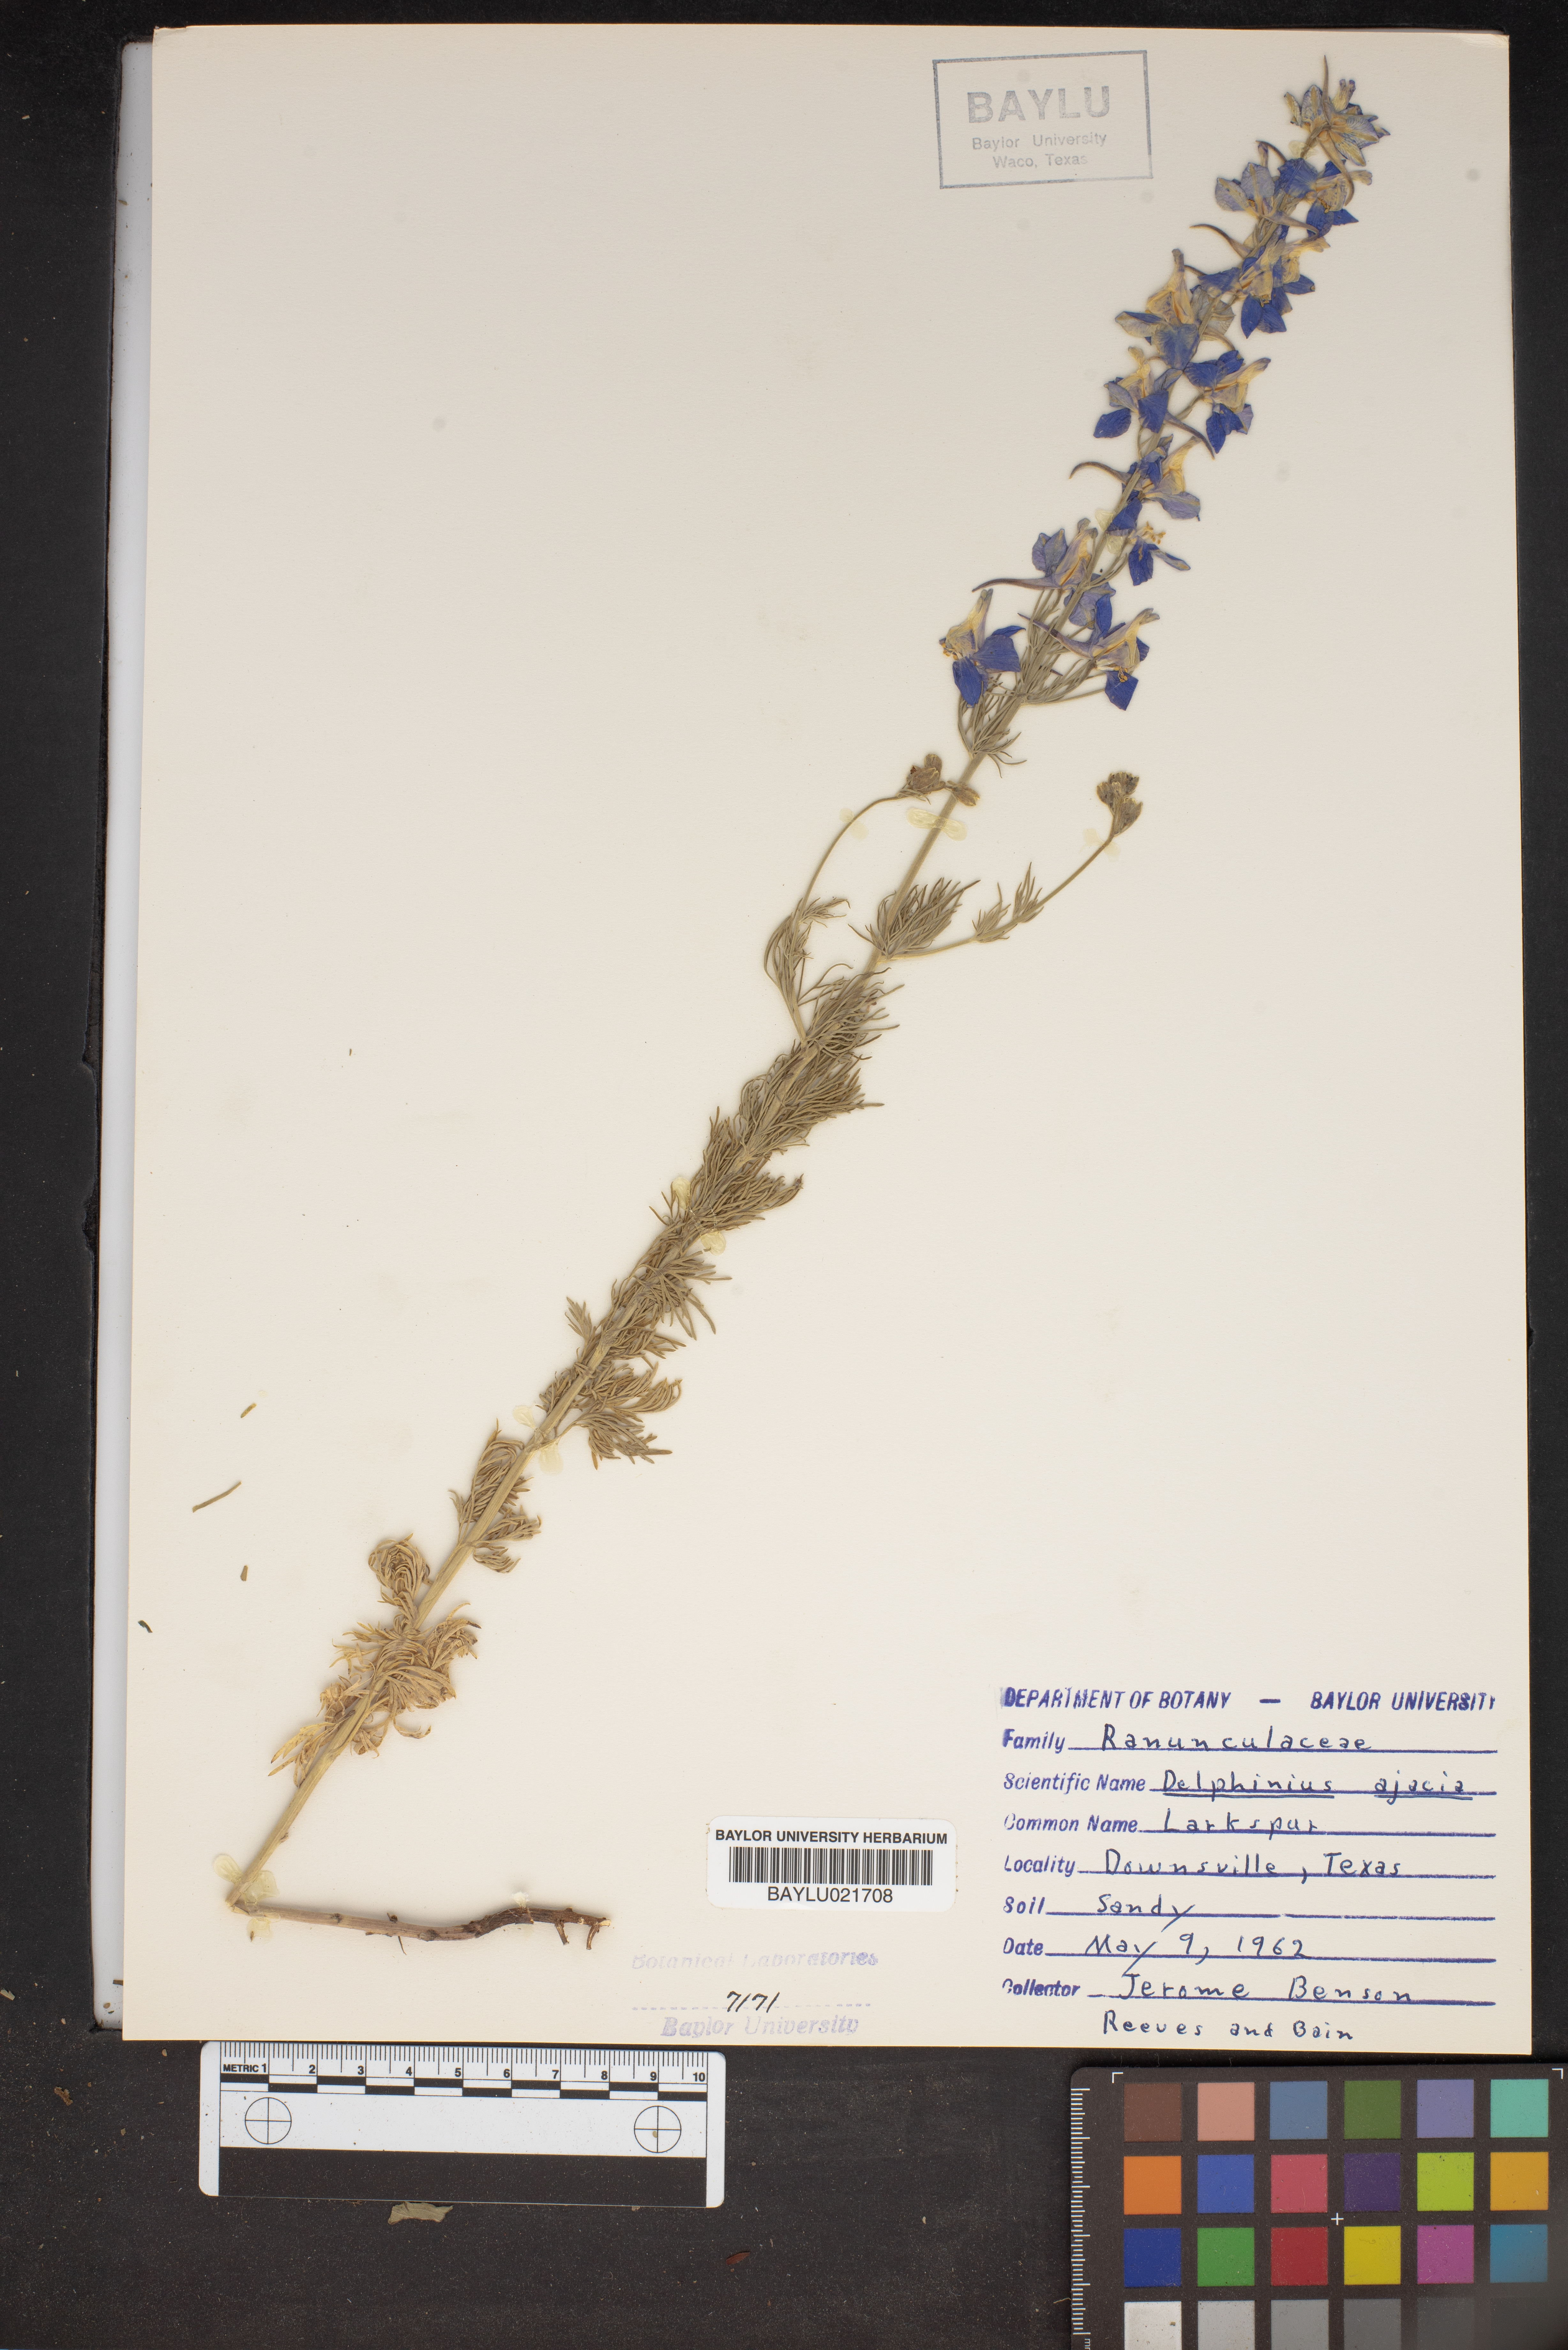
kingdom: Plantae
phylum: Tracheophyta
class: Magnoliopsida
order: Ranunculales
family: Ranunculaceae
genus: Delphinium
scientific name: Delphinium ajacis
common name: Doubtful knight's-spur
